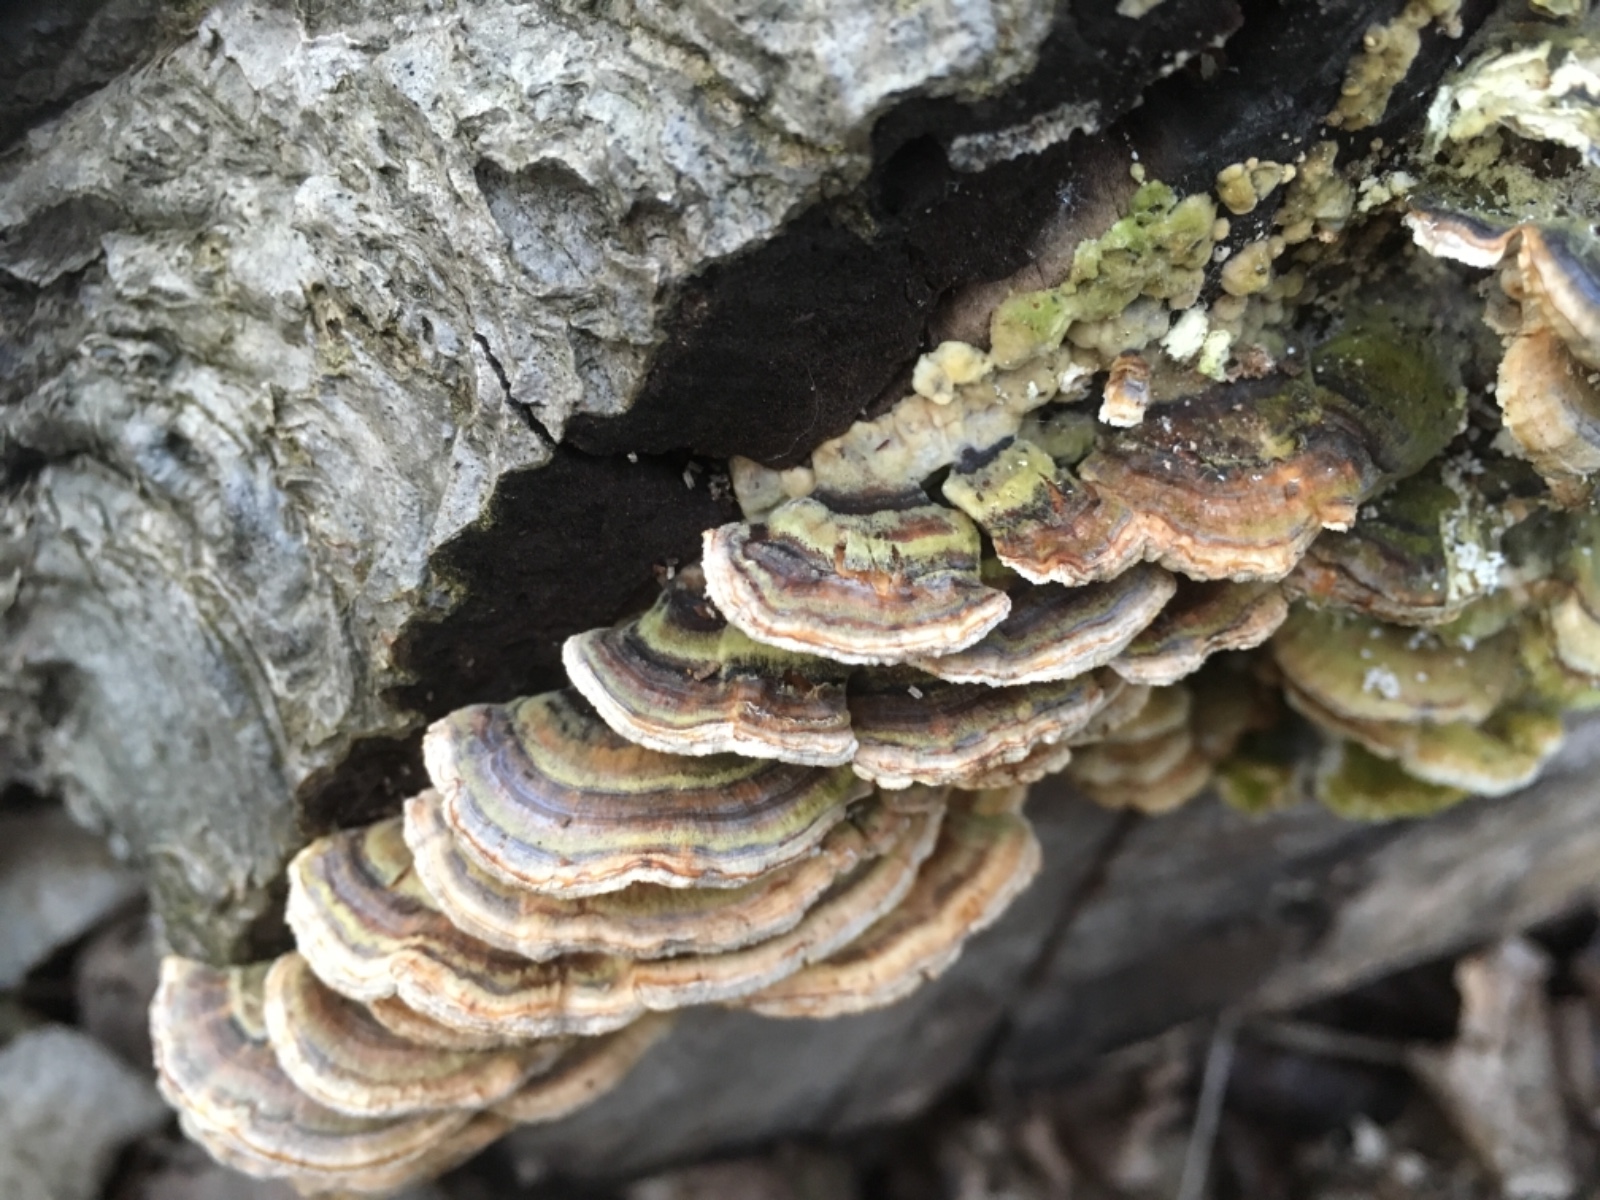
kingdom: Fungi
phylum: Basidiomycota
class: Agaricomycetes
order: Polyporales
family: Polyporaceae
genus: Trametes
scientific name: Trametes versicolor
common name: broget læderporesvamp
